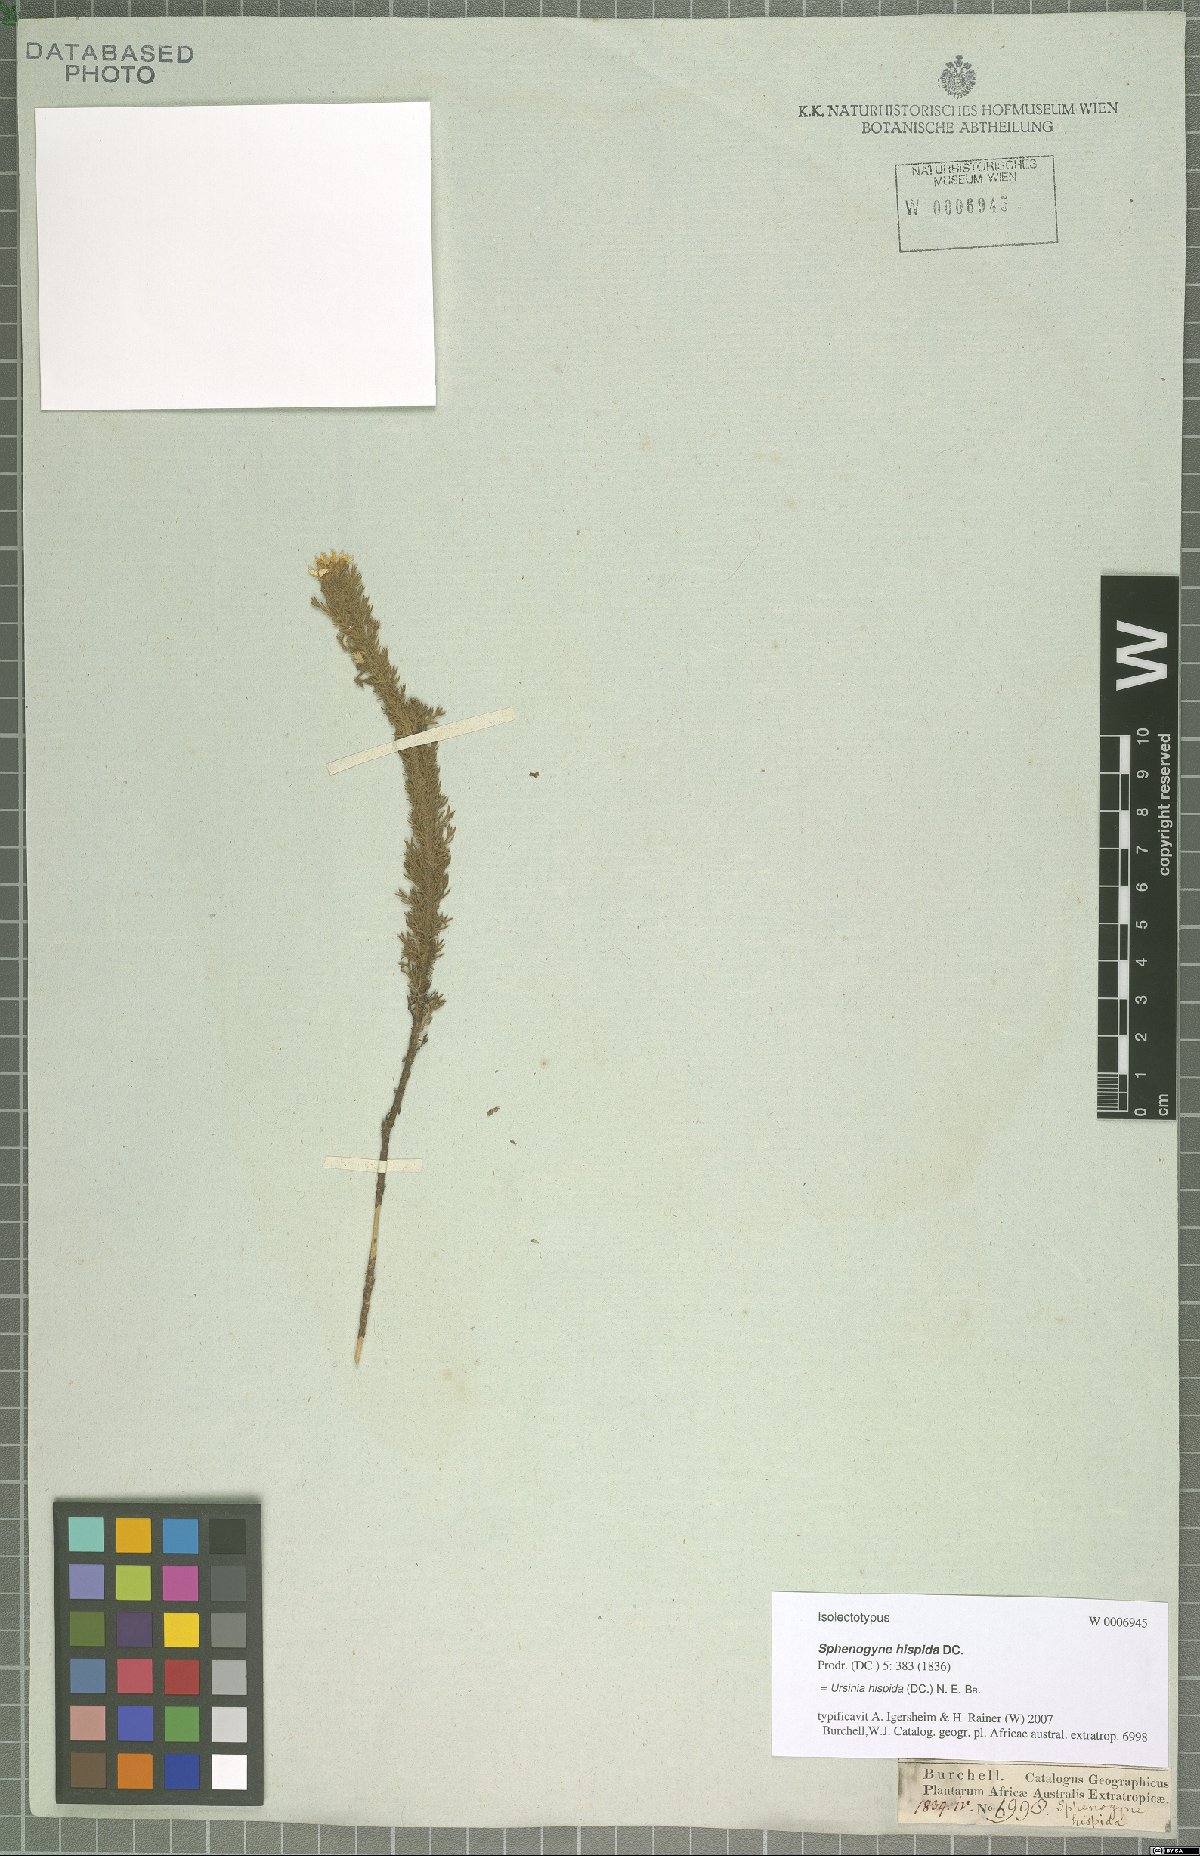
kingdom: Plantae
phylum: Tracheophyta
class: Magnoliopsida
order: Asterales
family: Asteraceae
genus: Ursinia
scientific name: Ursinia hispida
